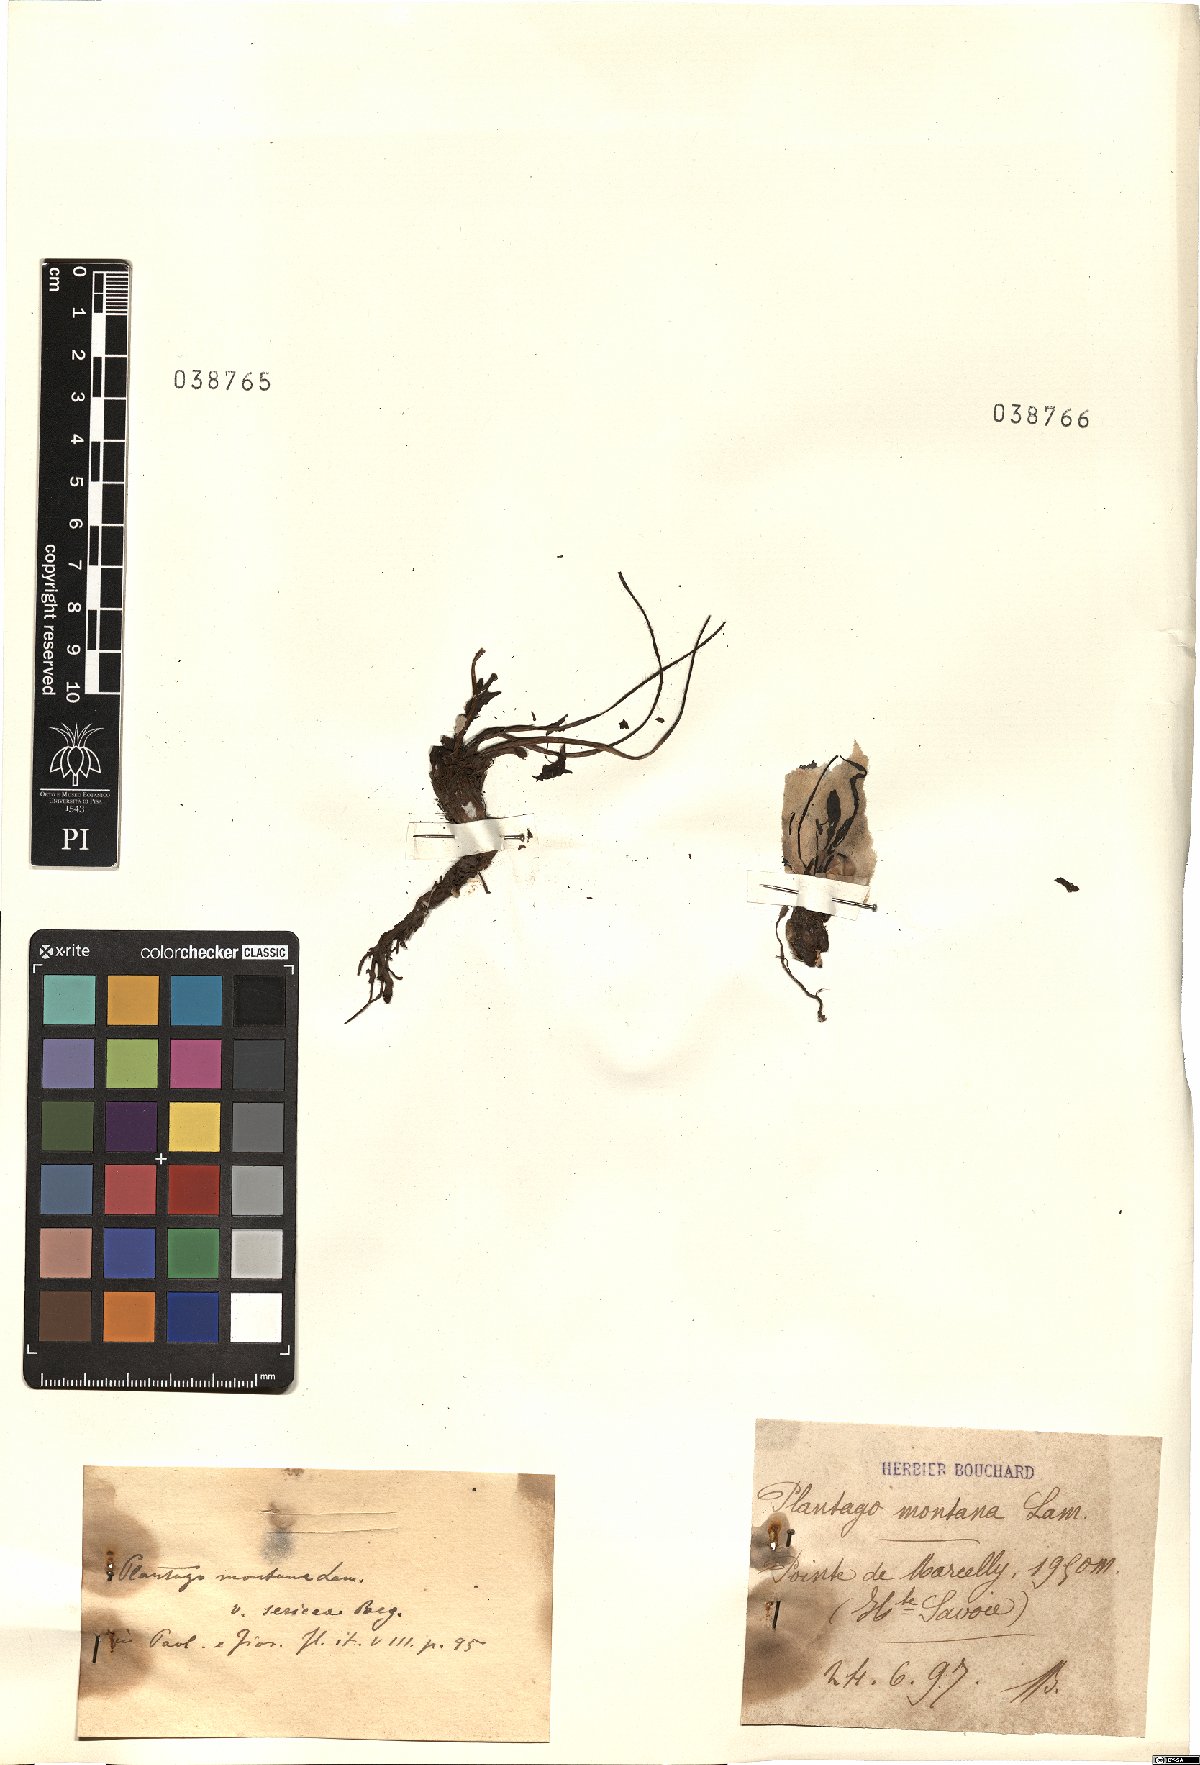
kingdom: Plantae
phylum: Tracheophyta
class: Magnoliopsida
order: Lamiales
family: Plantaginaceae
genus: Plantago
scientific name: Plantago atrata
